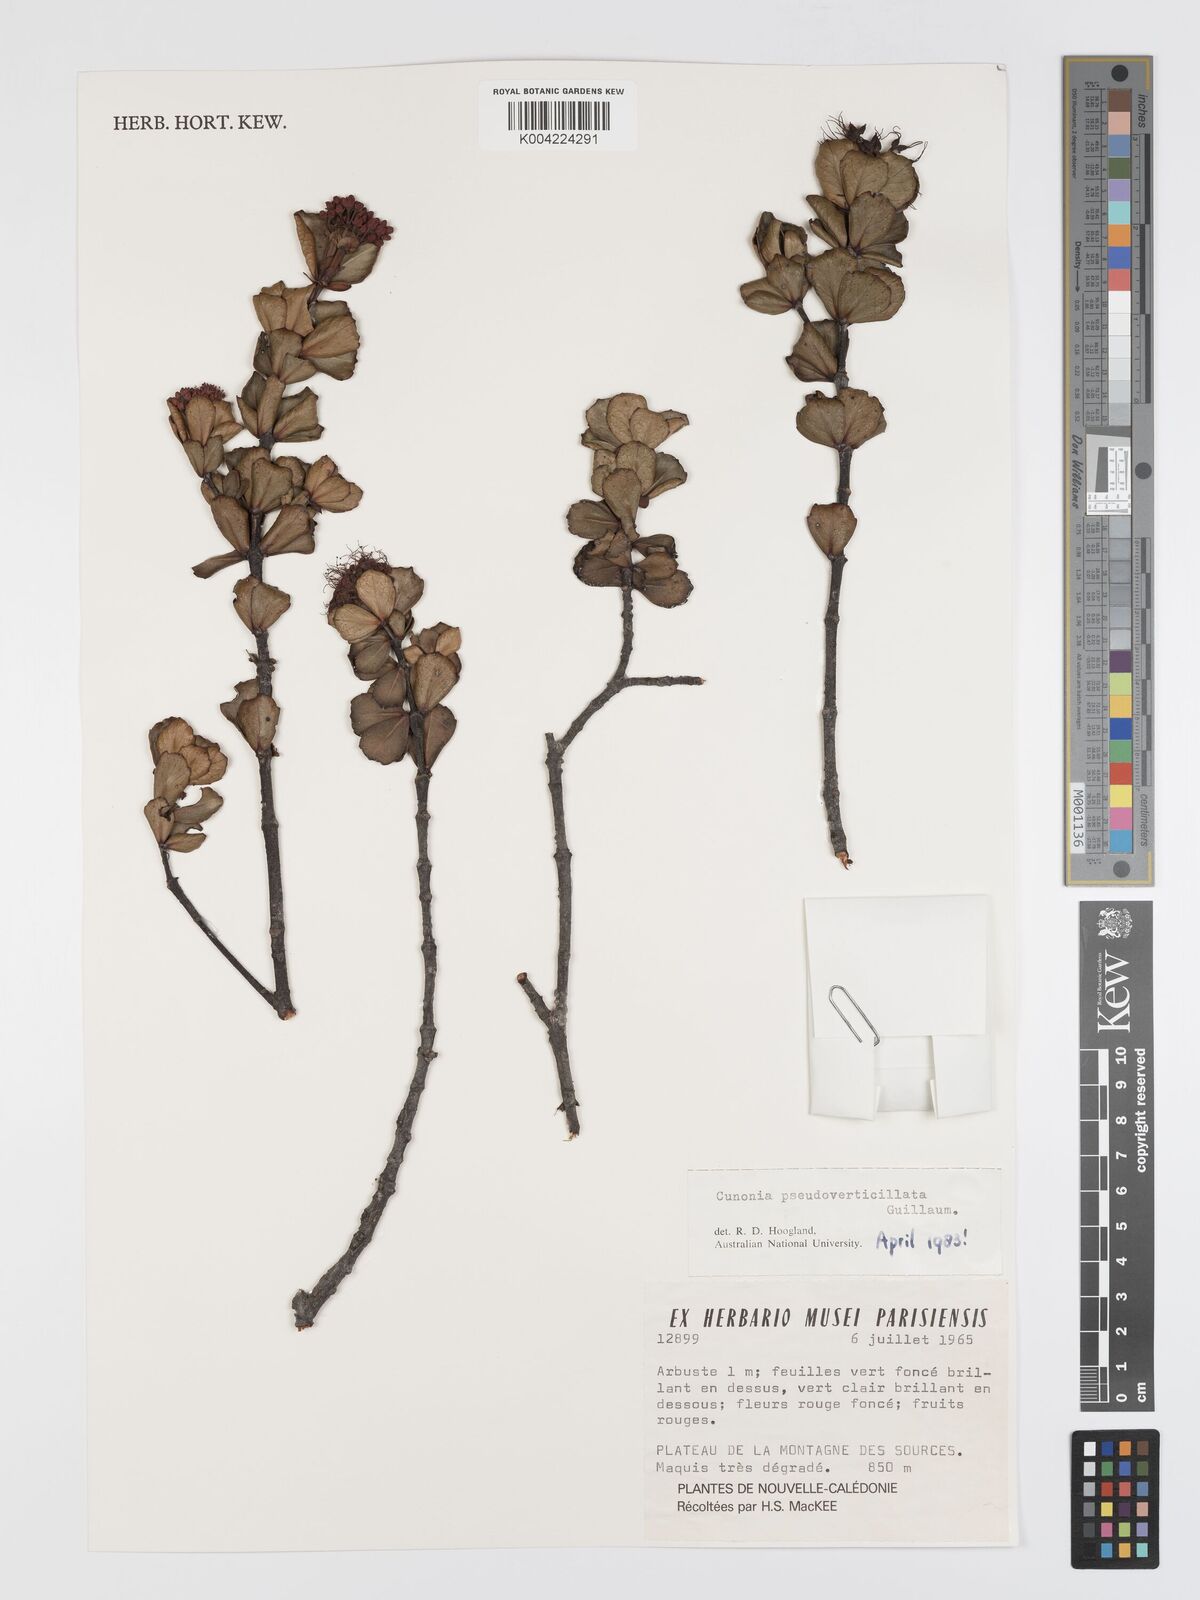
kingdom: Plantae
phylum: Tracheophyta
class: Magnoliopsida
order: Oxalidales
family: Cunoniaceae
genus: Cunonia
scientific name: Cunonia pseudoverticillata
